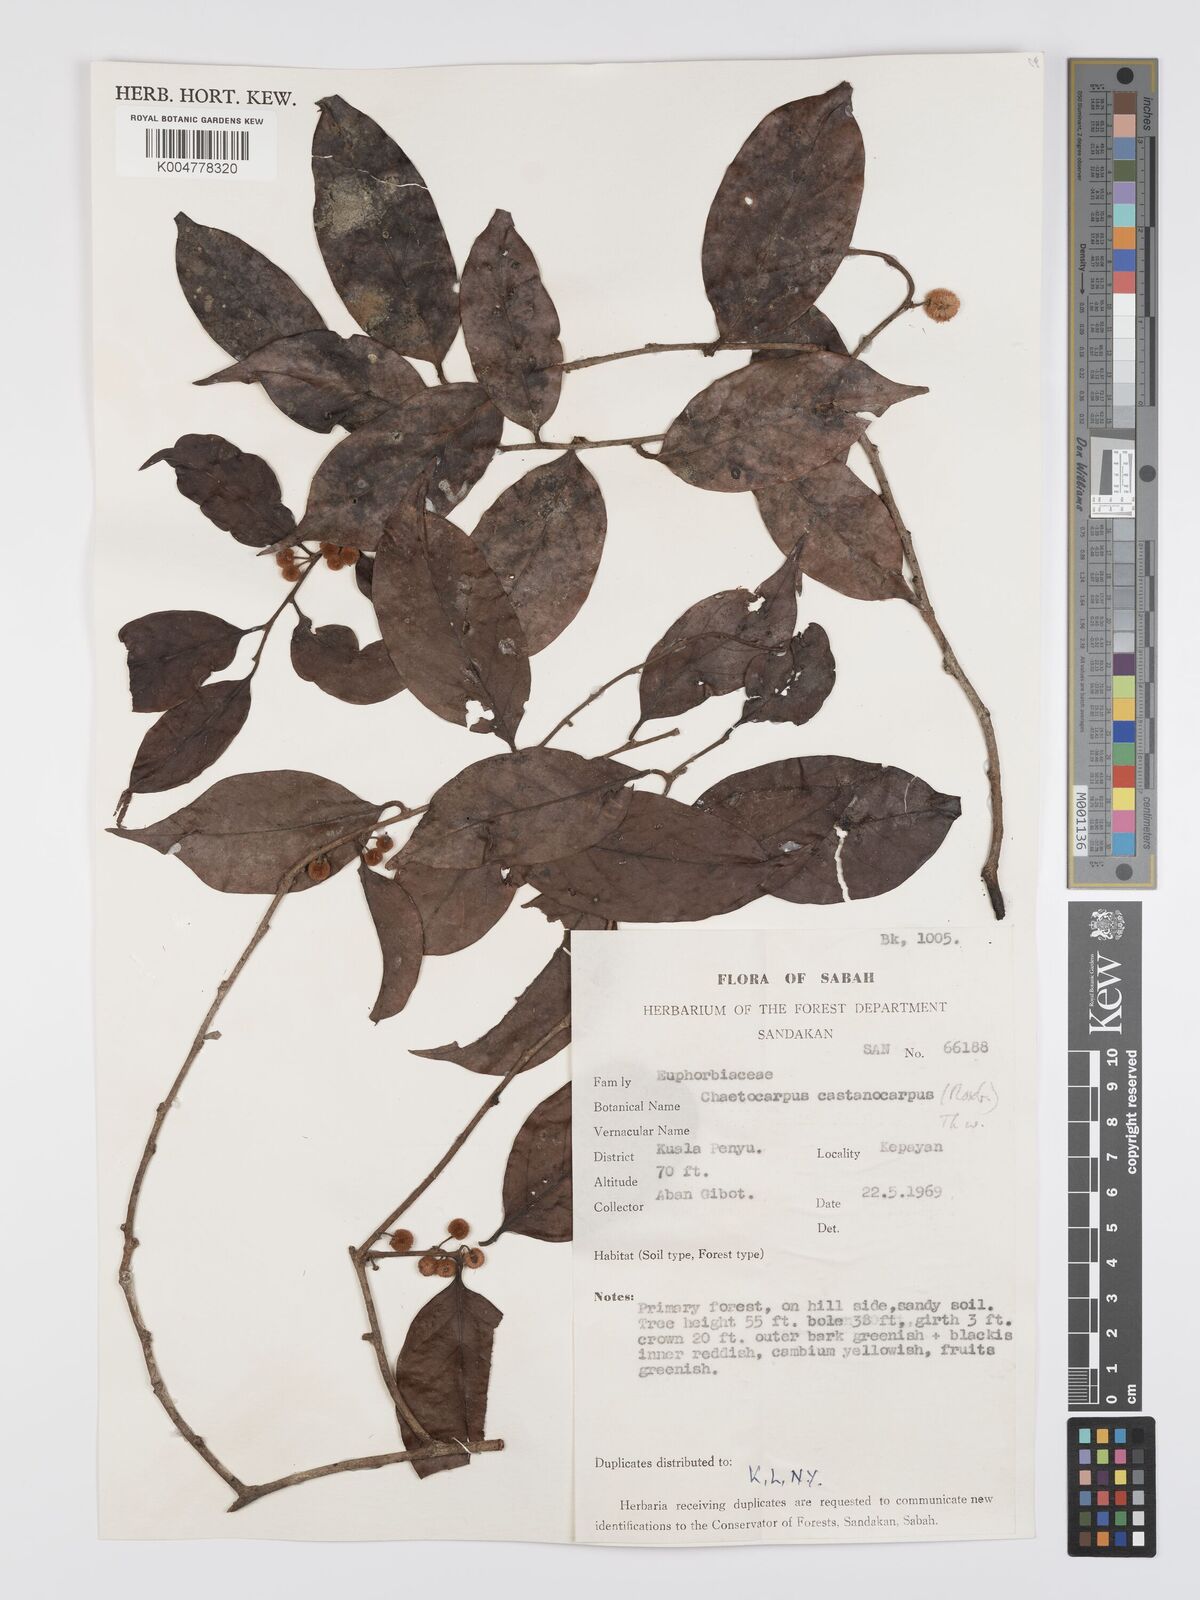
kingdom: Plantae
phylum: Tracheophyta
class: Magnoliopsida
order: Malpighiales
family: Peraceae
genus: Chaetocarpus
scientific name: Chaetocarpus castanocarpus
